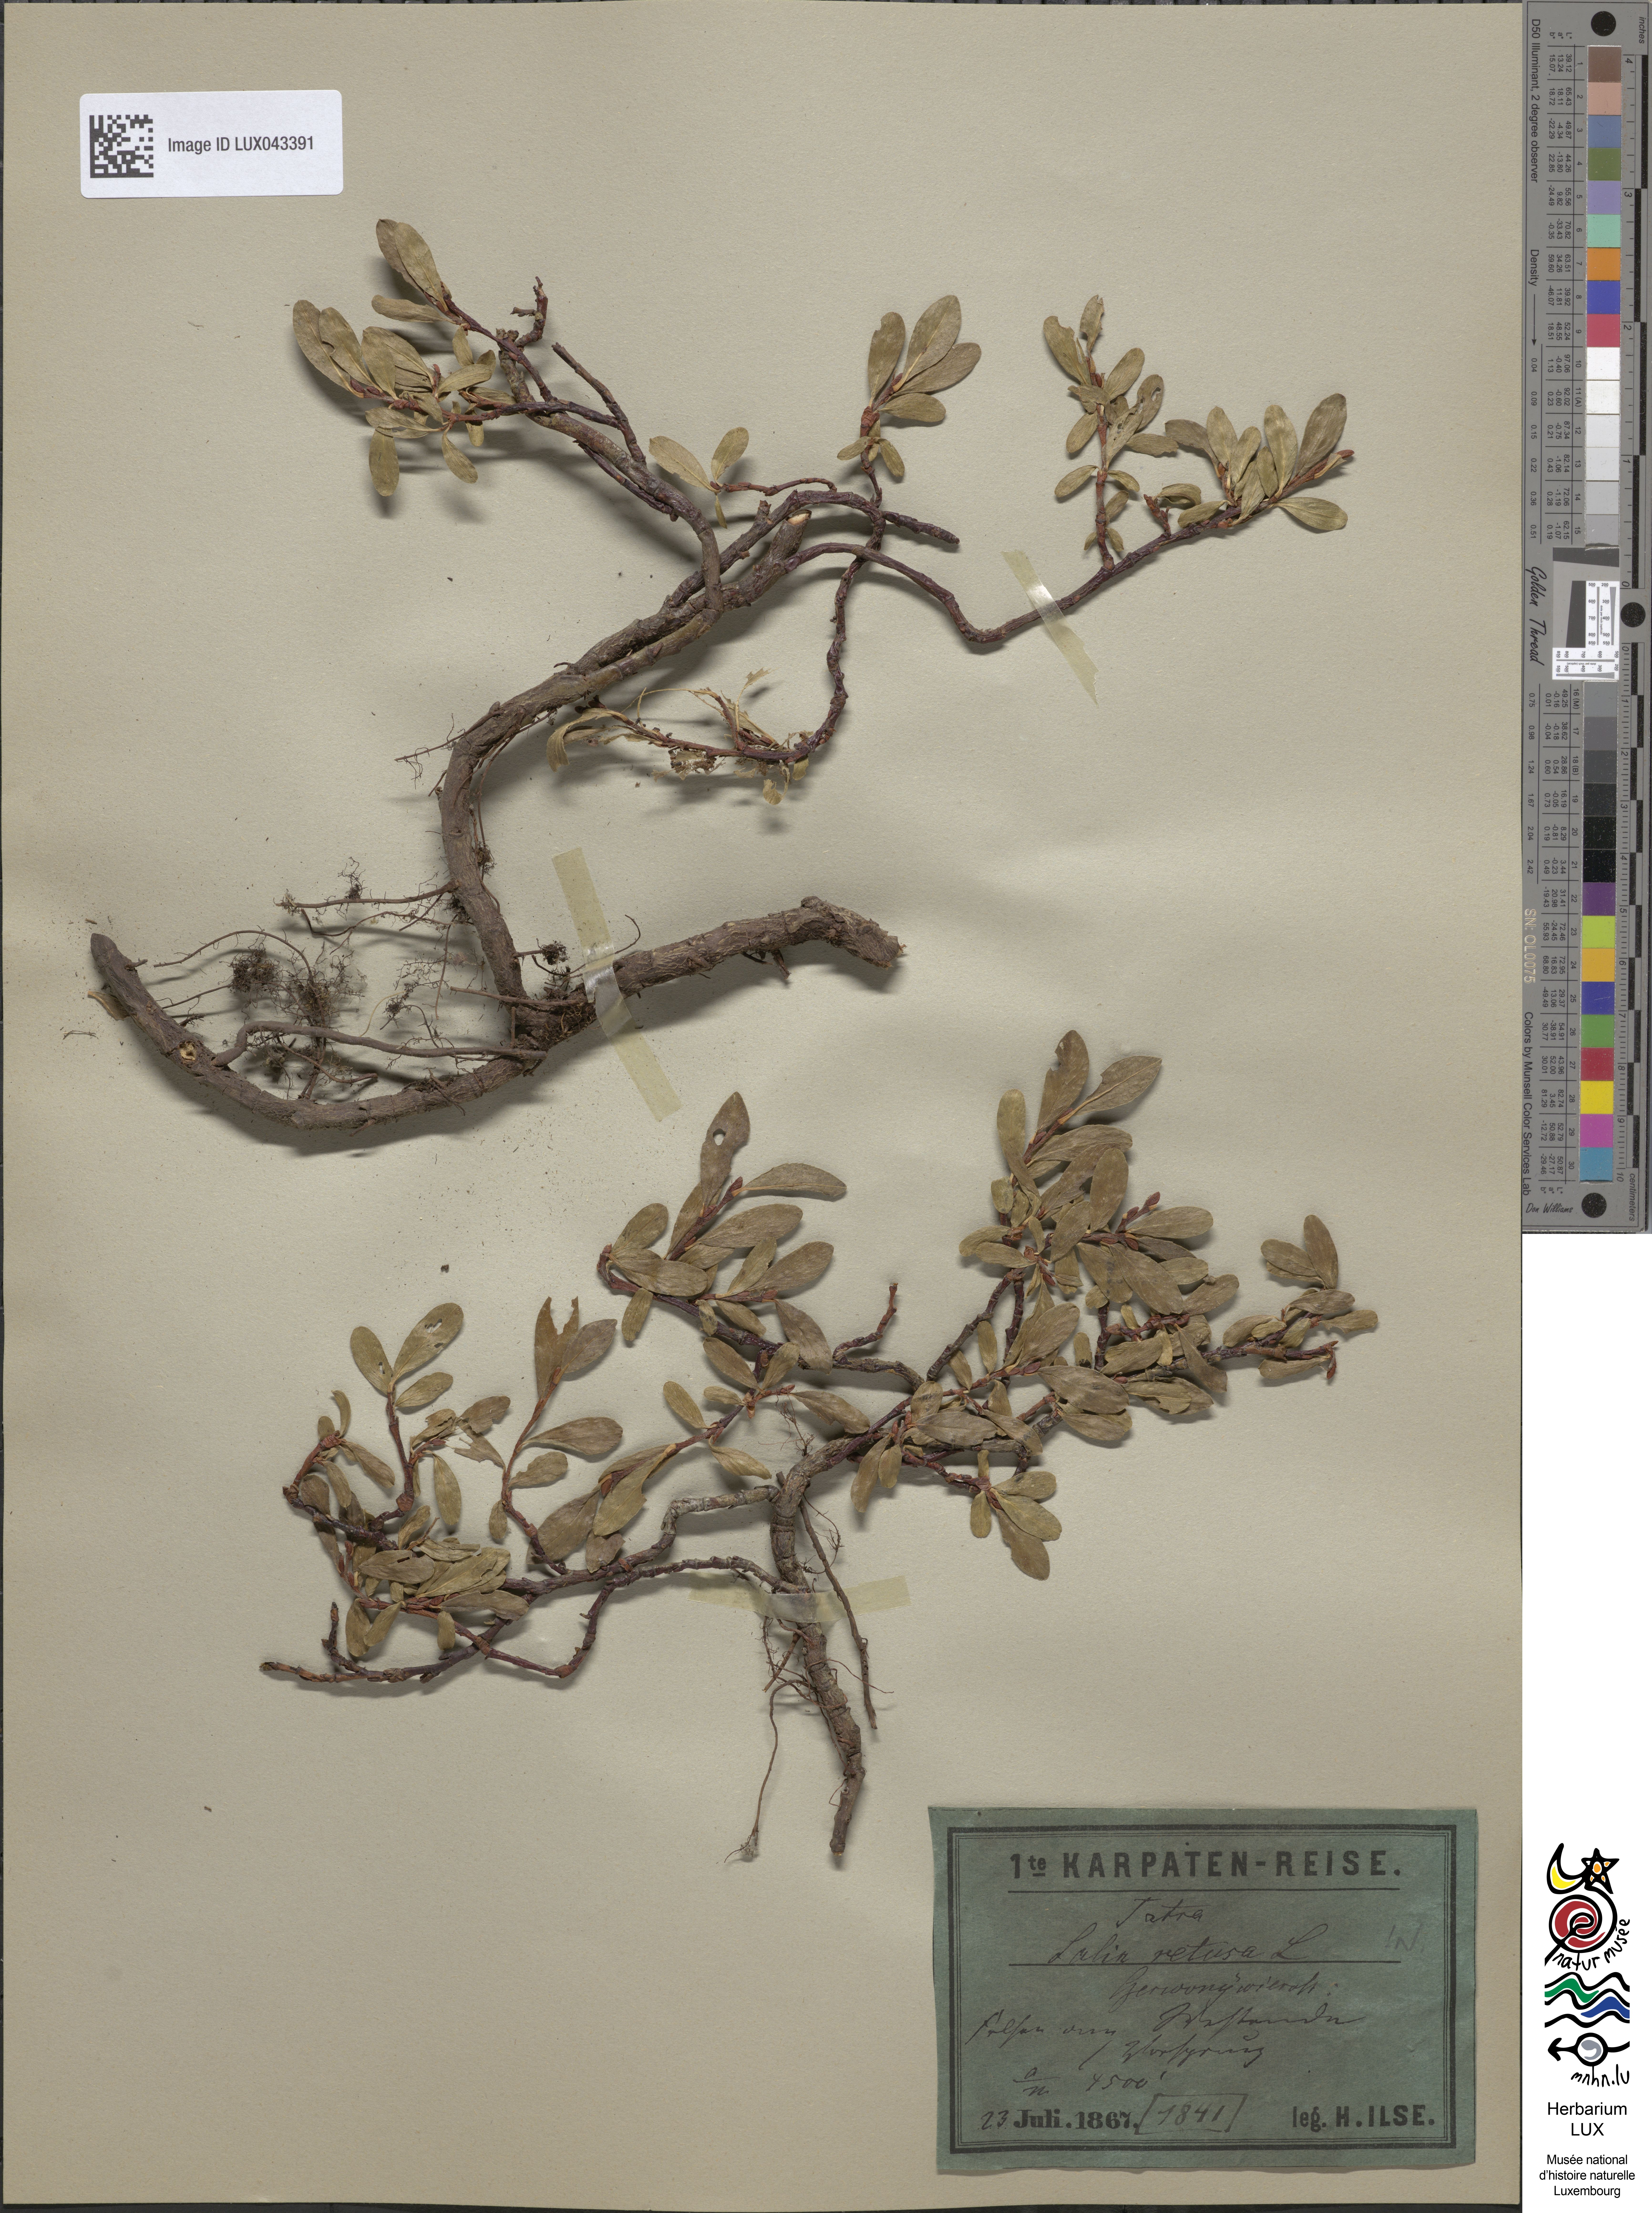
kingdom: Plantae
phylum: Tracheophyta
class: Magnoliopsida
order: Malpighiales
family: Salicaceae
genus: Salix
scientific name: Salix retusa
